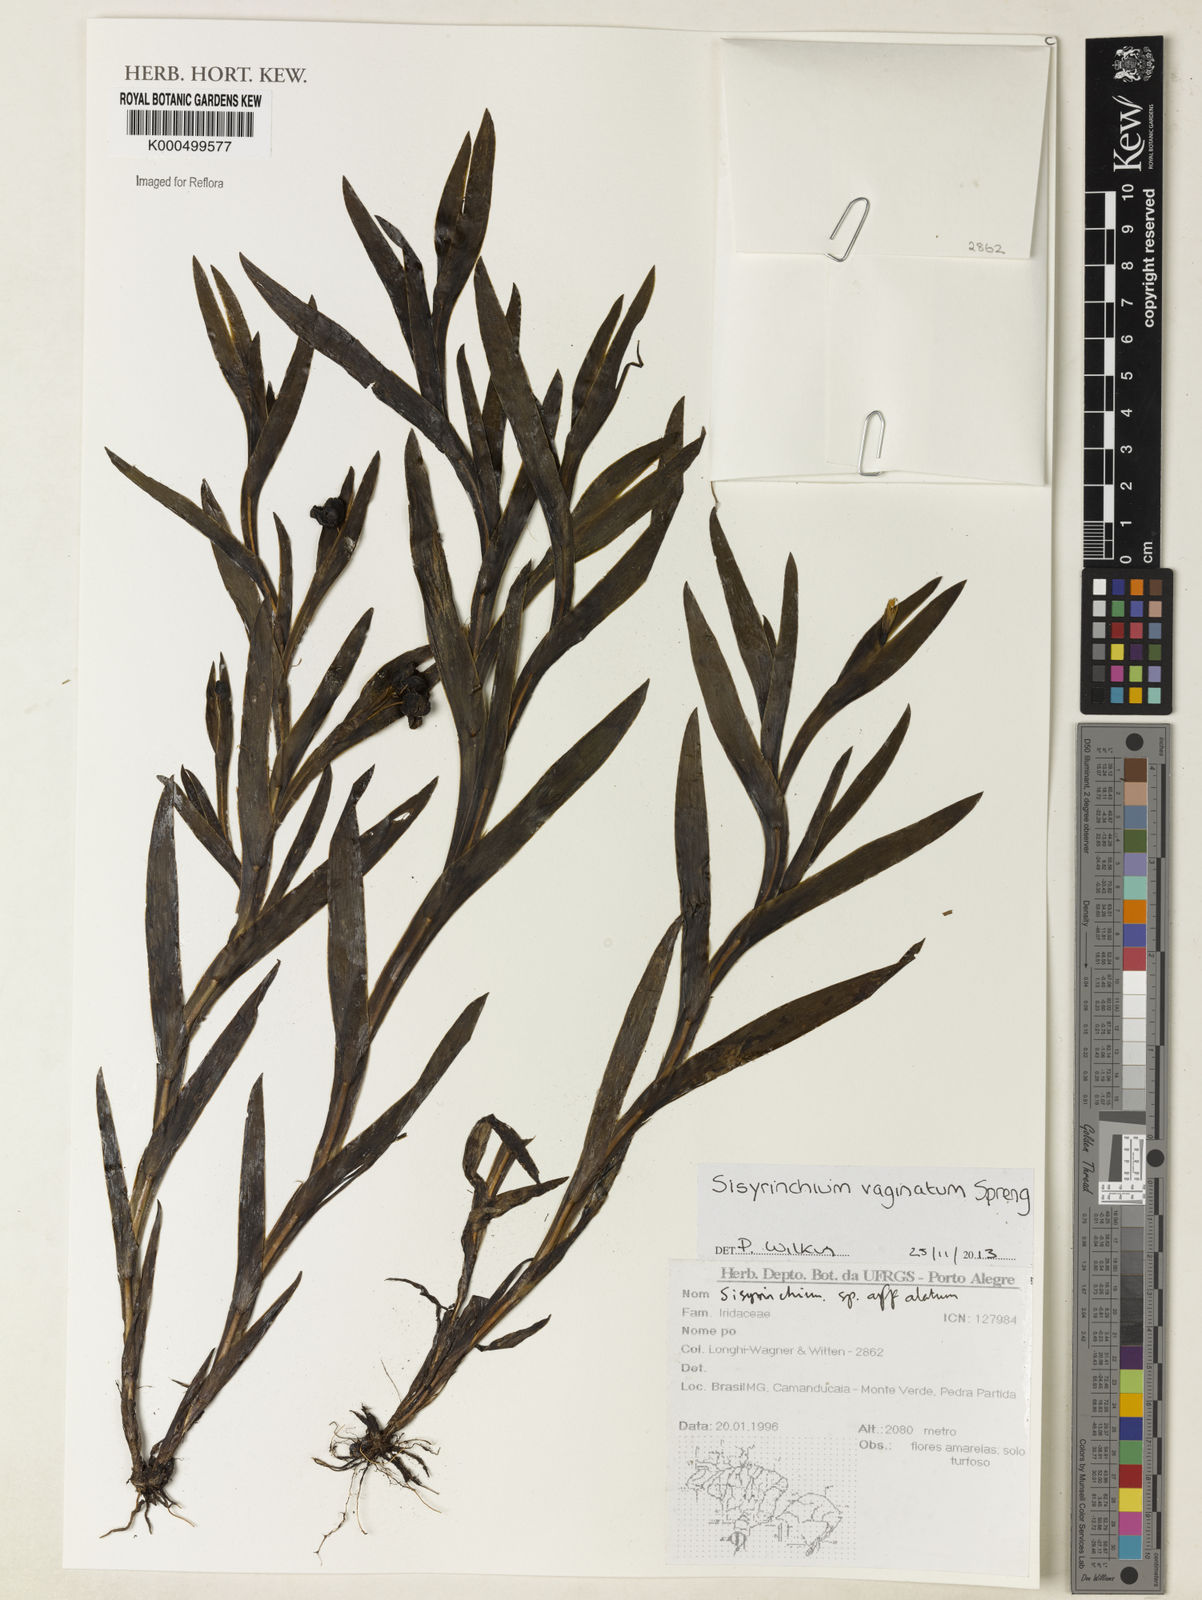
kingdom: Plantae
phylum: Tracheophyta
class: Liliopsida
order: Asparagales
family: Iridaceae
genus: Sisyrinchium
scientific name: Sisyrinchium vaginatum
